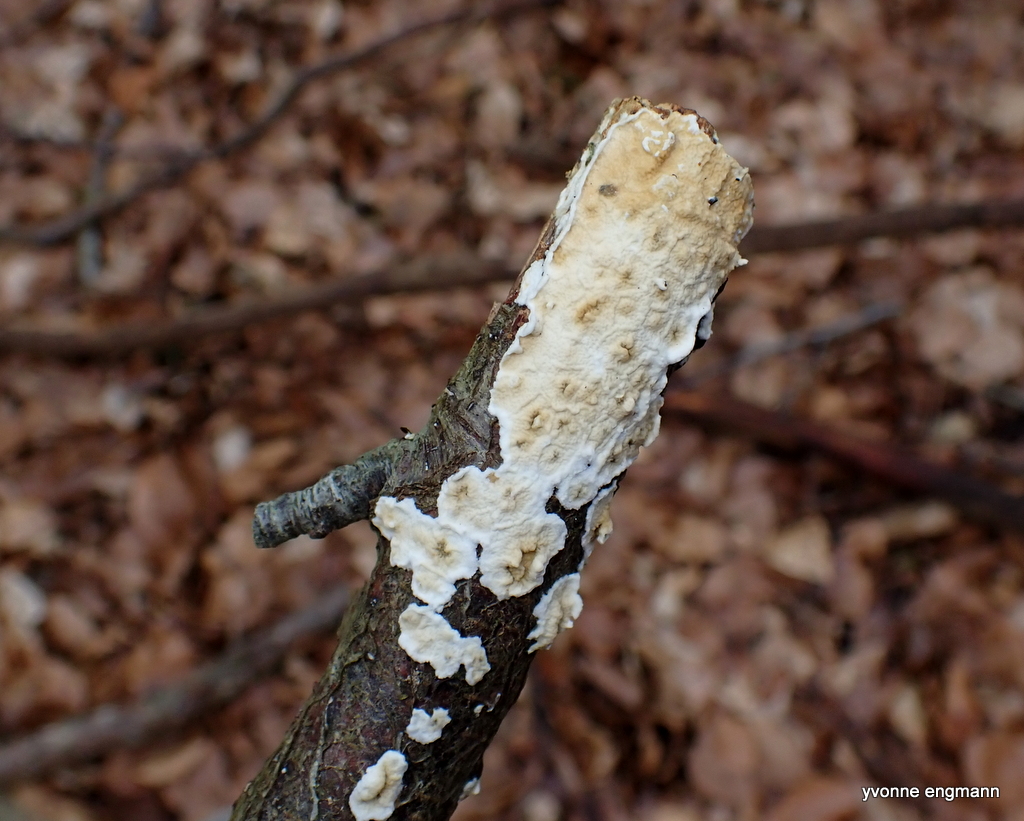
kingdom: Fungi
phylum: Basidiomycota
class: Agaricomycetes
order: Polyporales
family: Irpicaceae
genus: Byssomerulius
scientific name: Byssomerulius corium
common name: læder-åresvamp
